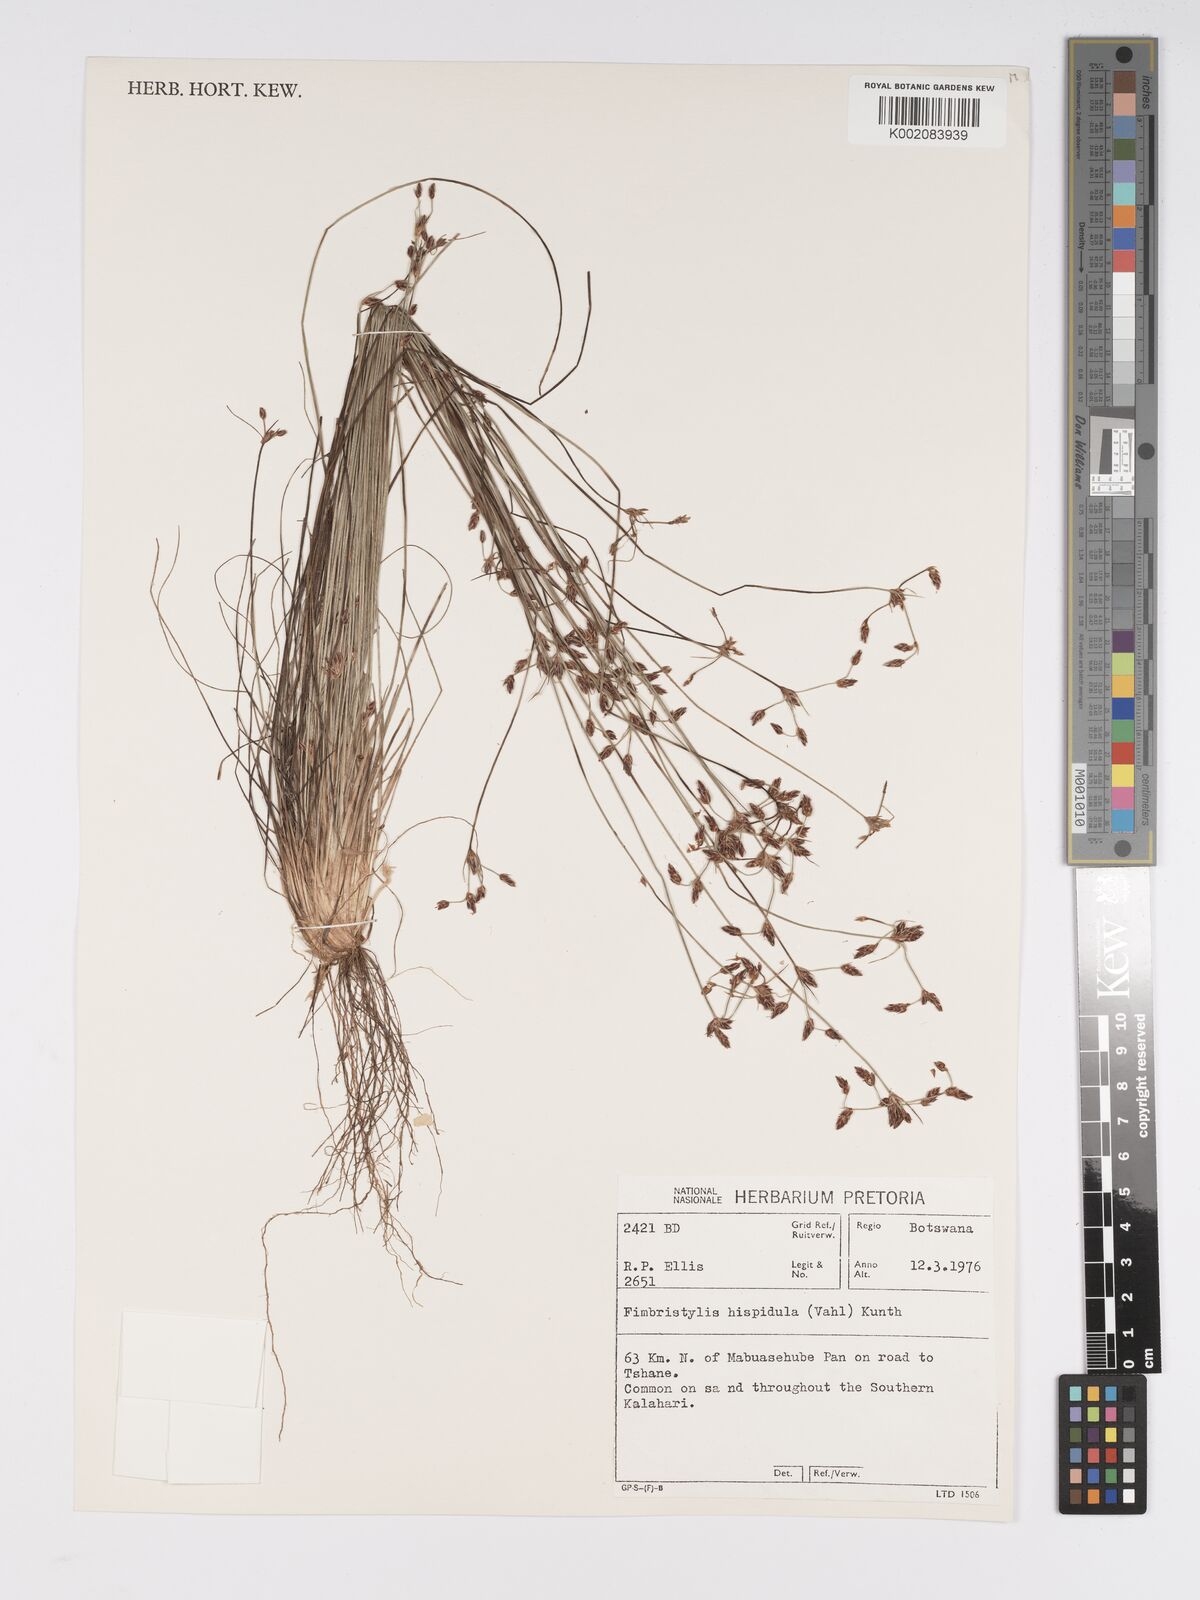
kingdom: Plantae
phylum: Tracheophyta
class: Liliopsida
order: Poales
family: Cyperaceae
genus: Bulbostylis
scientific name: Bulbostylis hispidula
